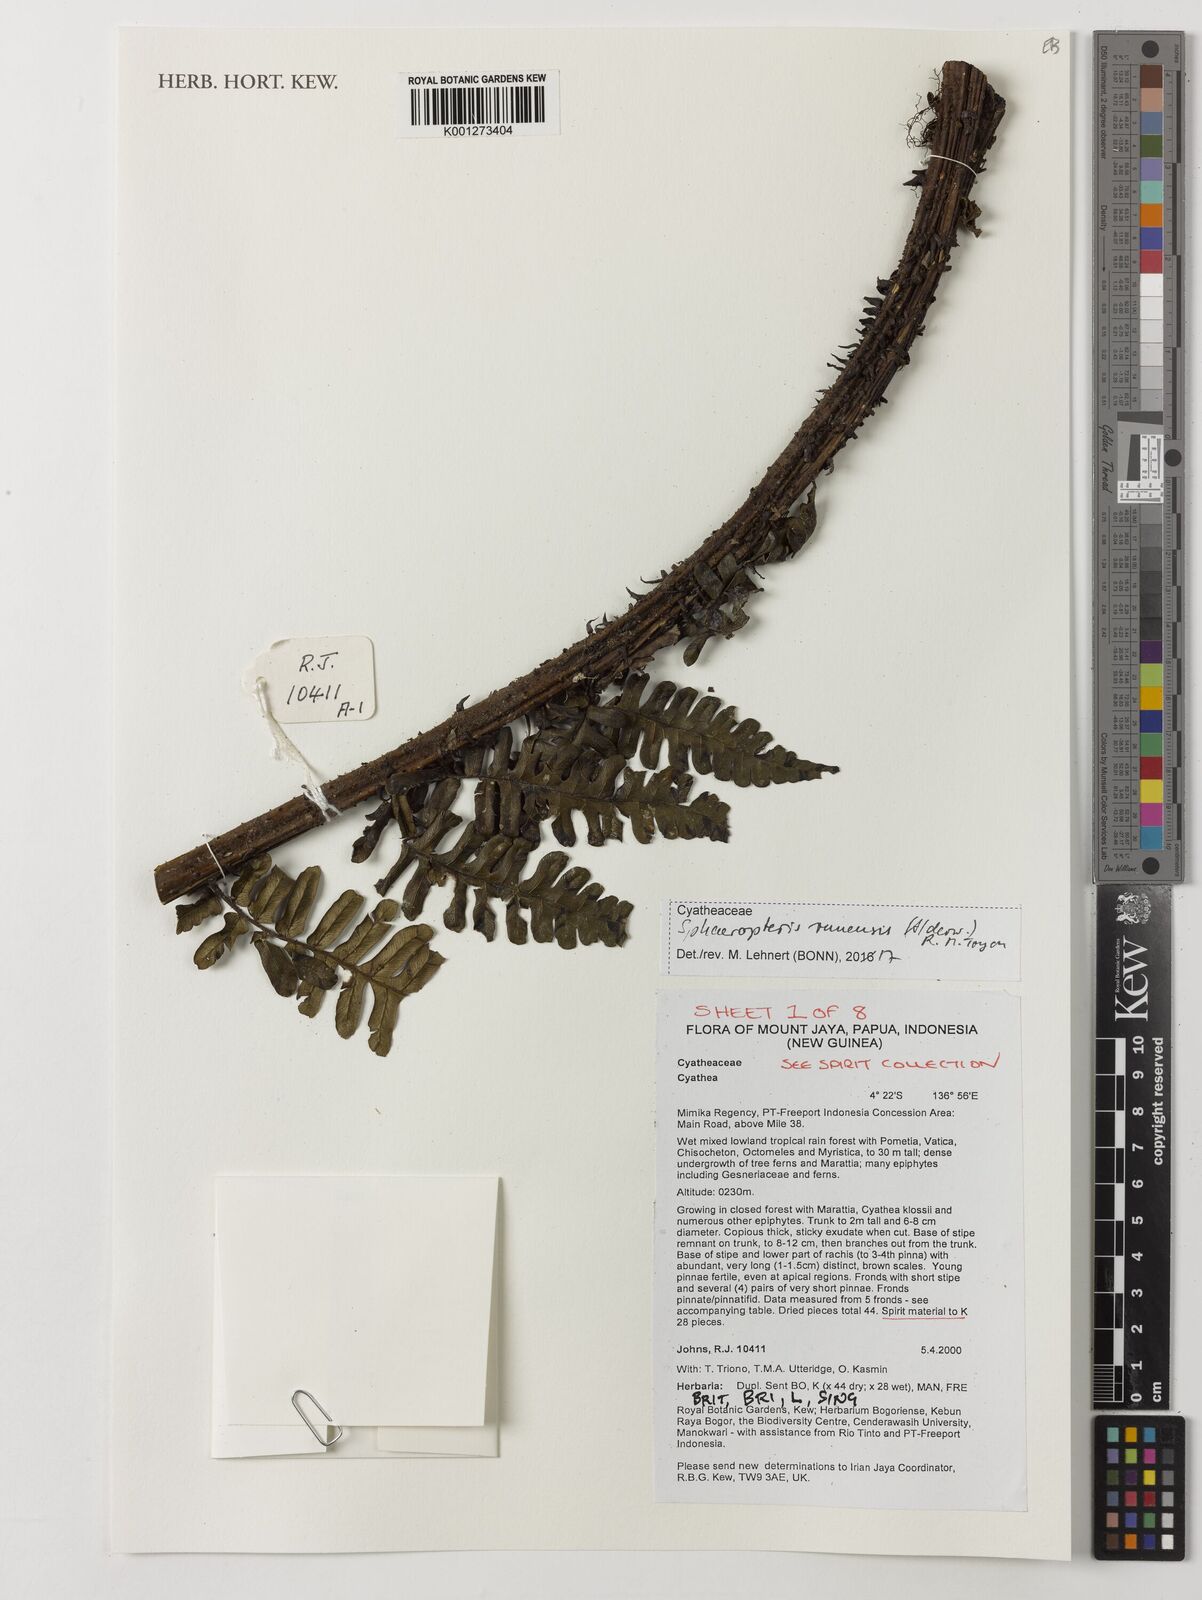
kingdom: Plantae
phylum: Tracheophyta
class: Polypodiopsida
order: Cyatheales
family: Cyatheaceae
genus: Sphaeropteris
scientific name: Sphaeropteris runensis
